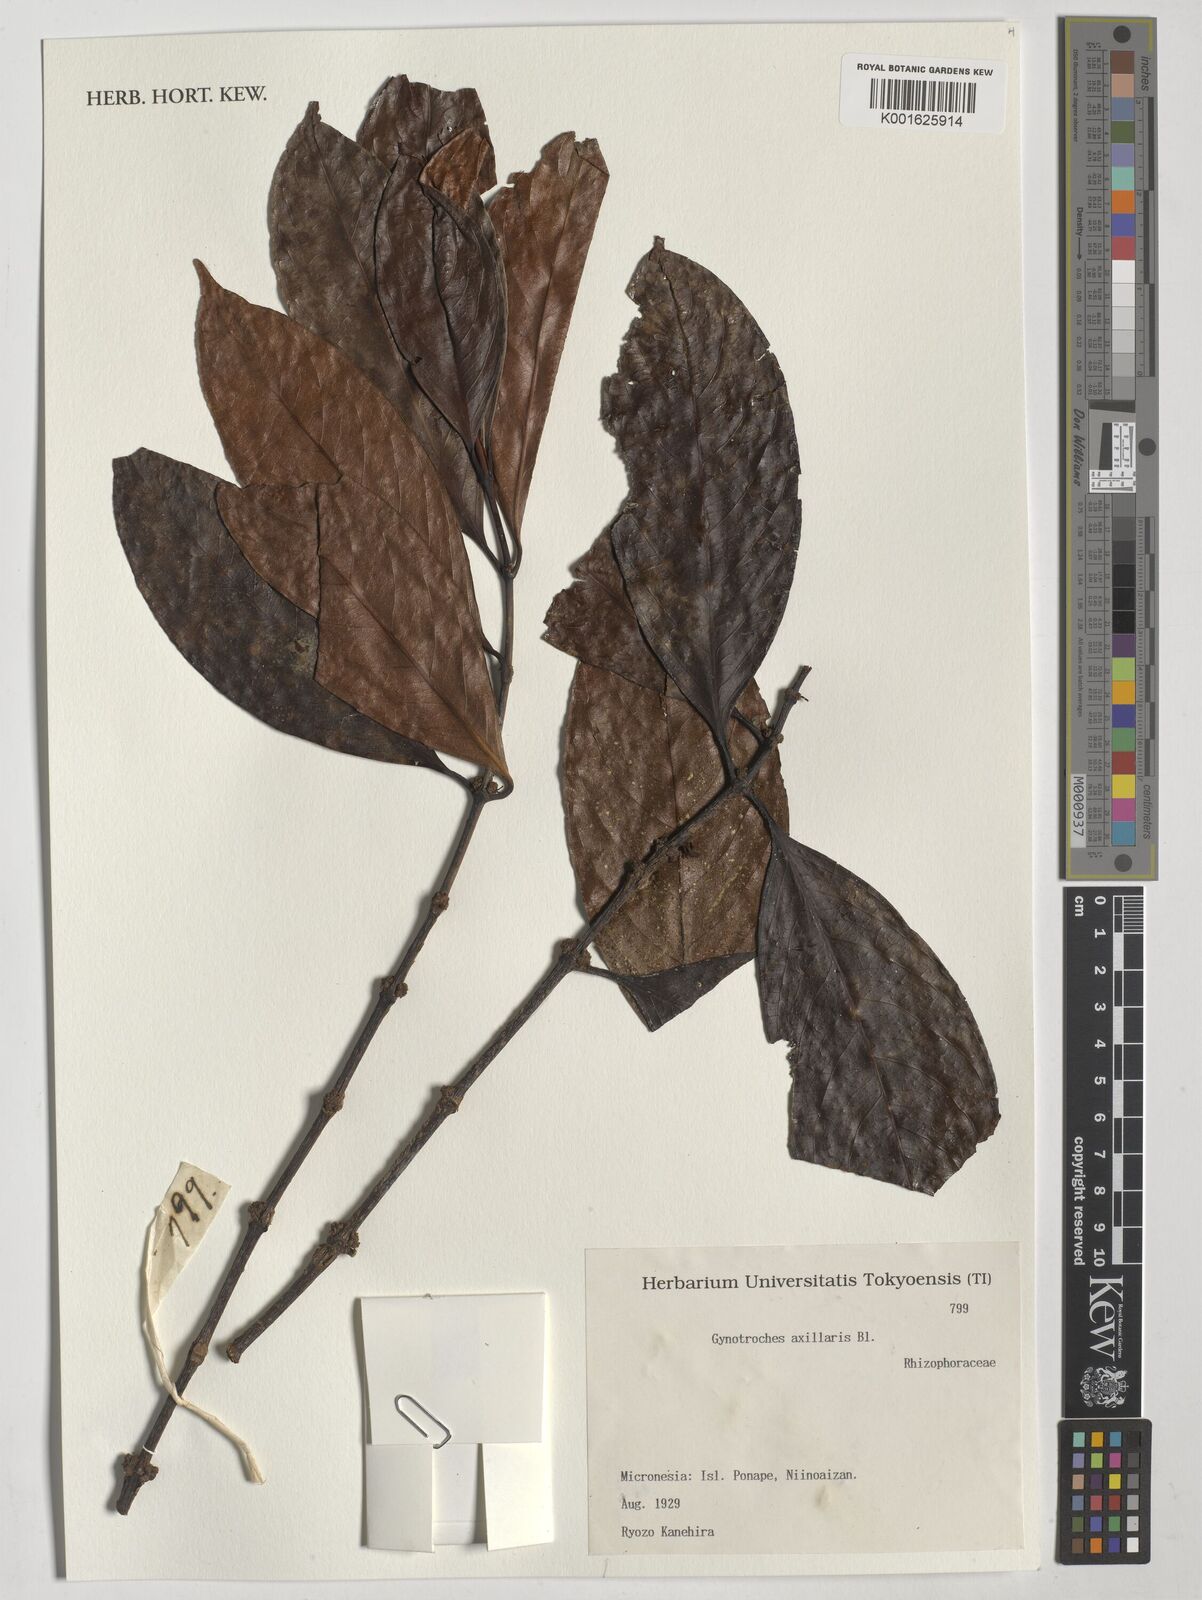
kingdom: Plantae
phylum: Tracheophyta
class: Magnoliopsida
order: Malpighiales
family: Rhizophoraceae
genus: Gynotroches
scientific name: Gynotroches axillaris
